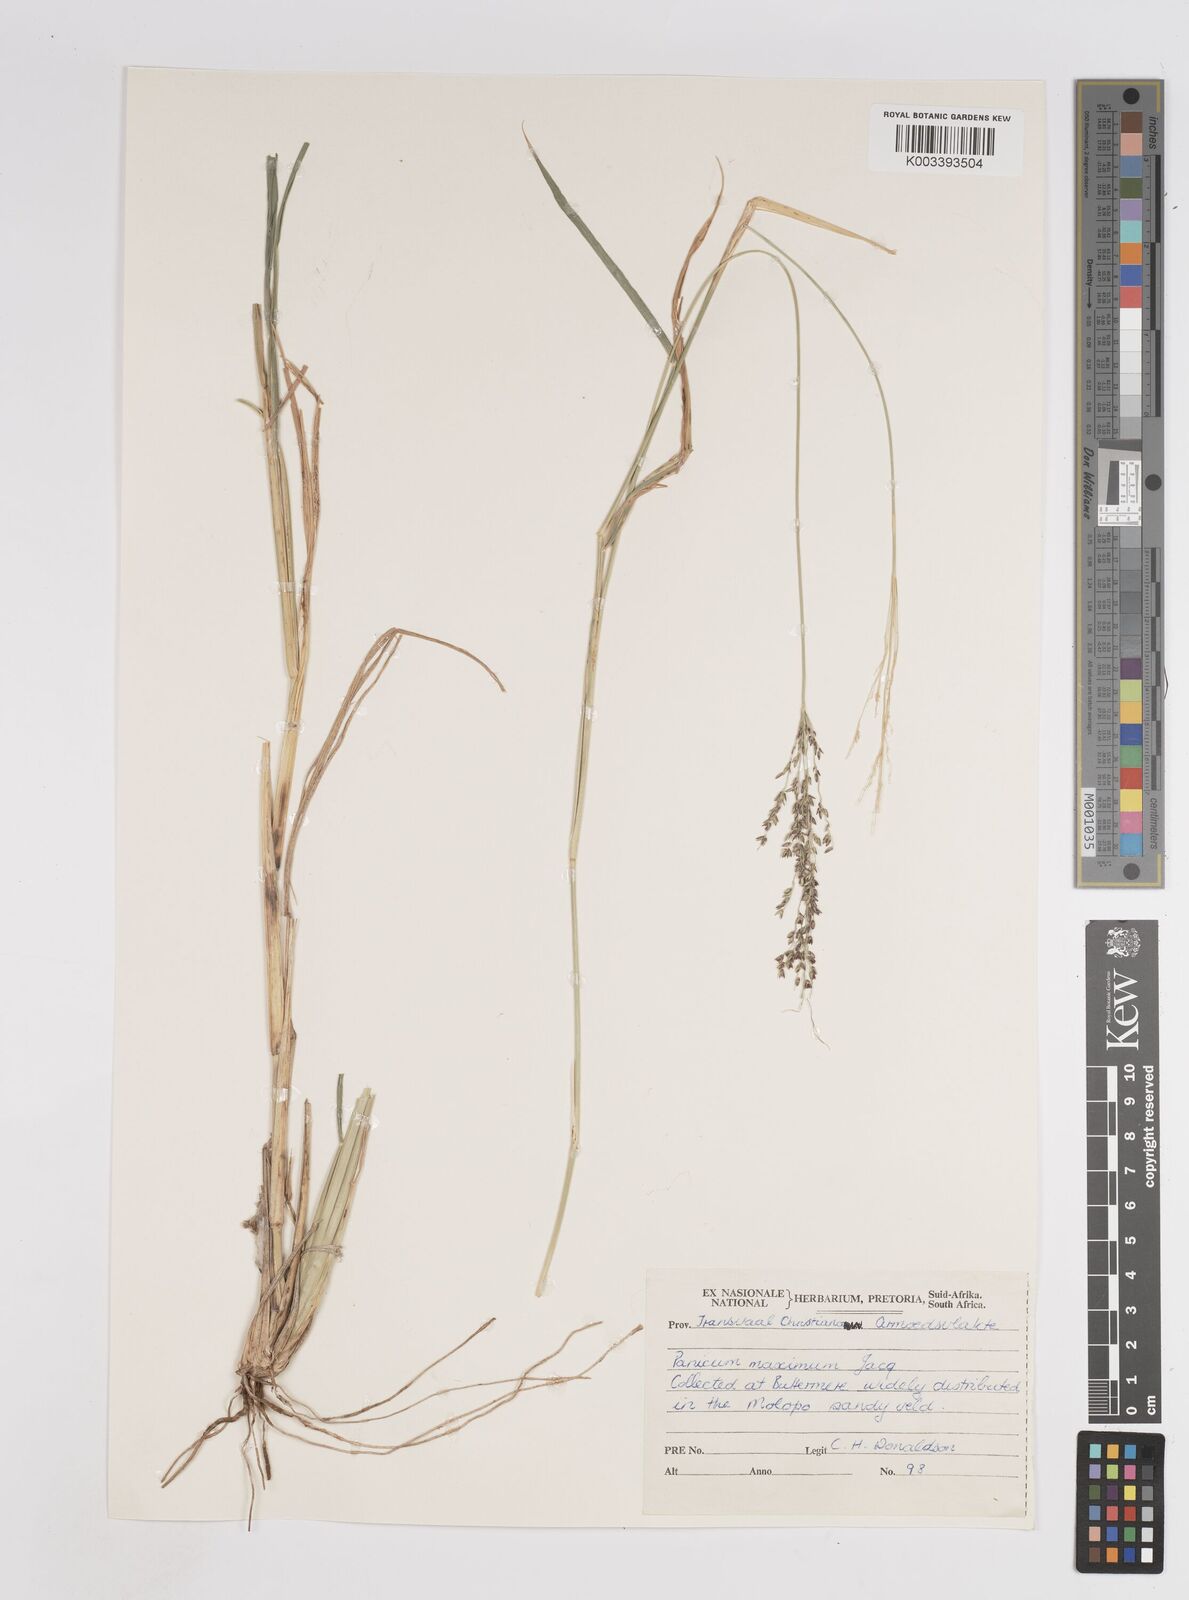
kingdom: Plantae
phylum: Tracheophyta
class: Liliopsida
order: Poales
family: Poaceae
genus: Megathyrsus
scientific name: Megathyrsus maximus
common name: Guineagrass
